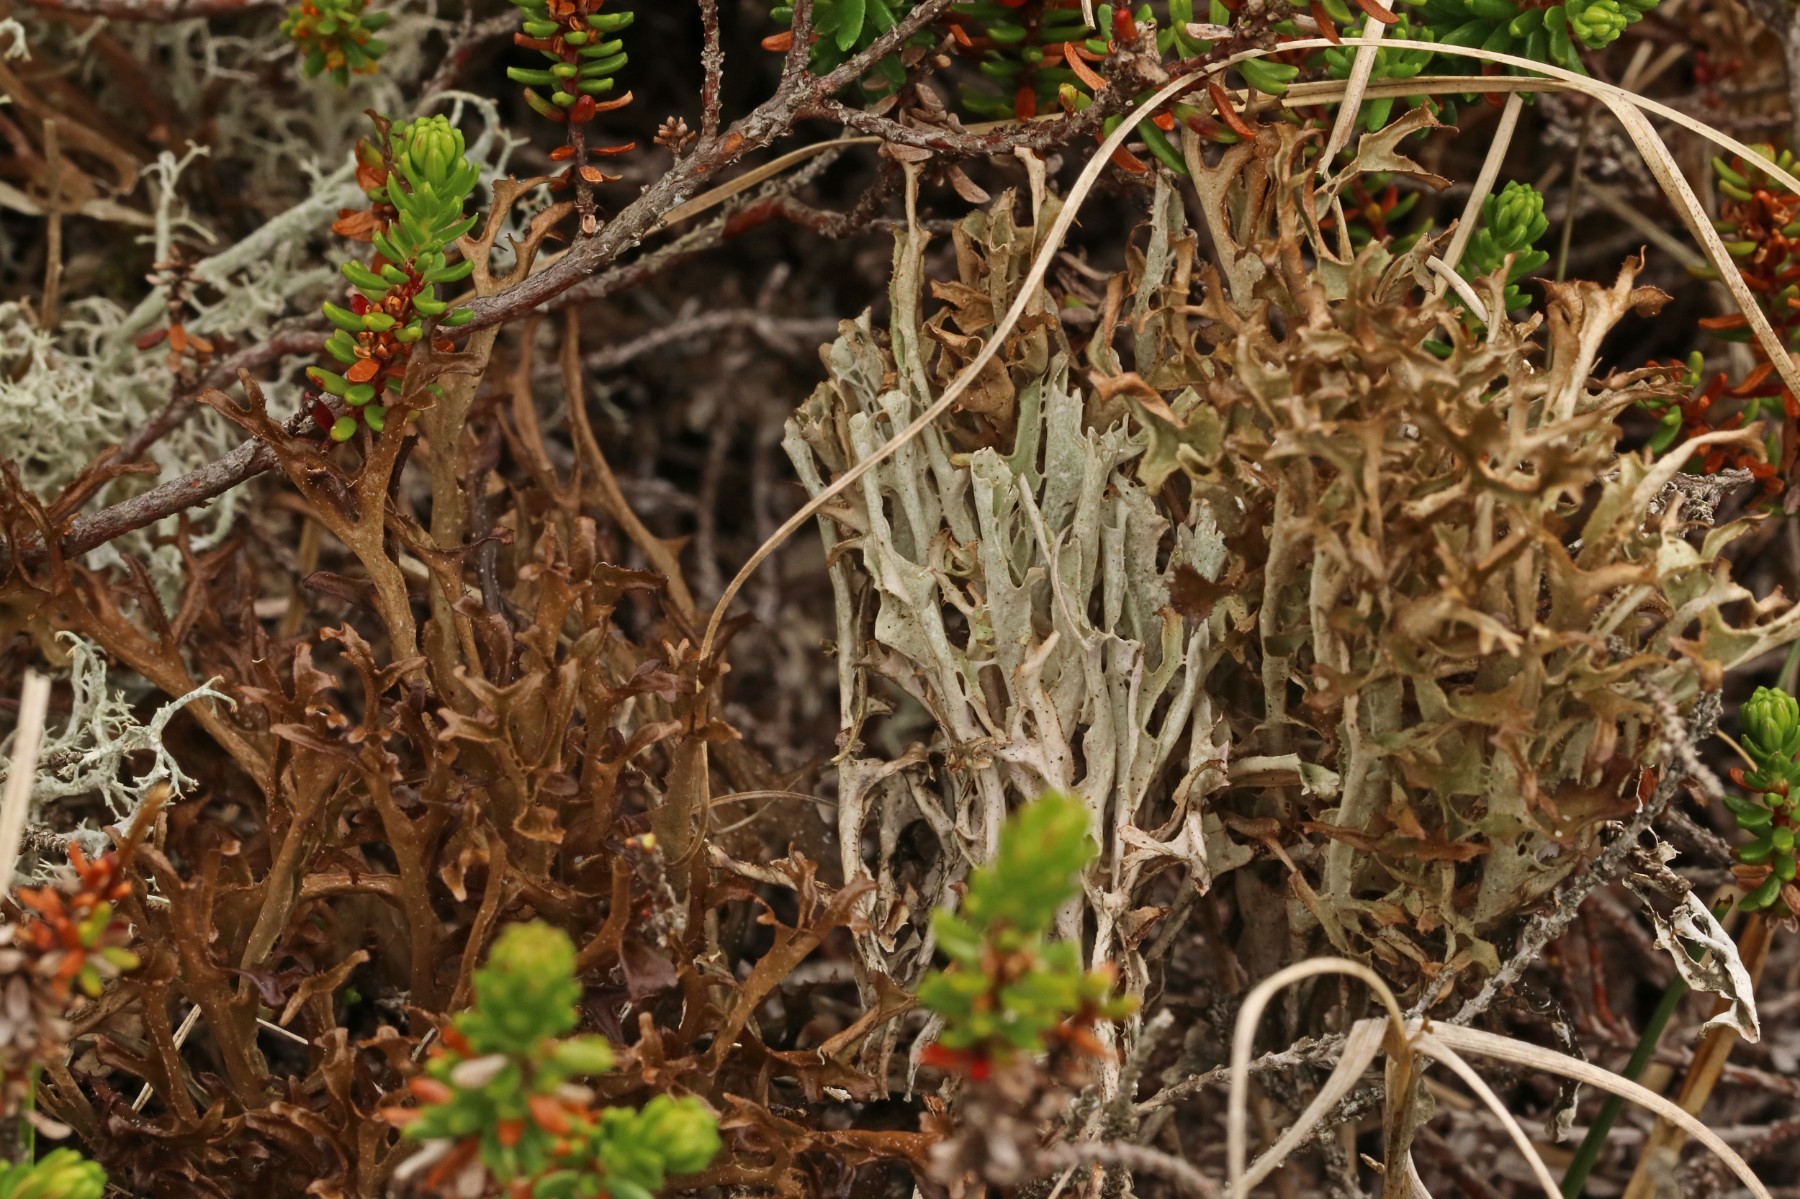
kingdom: Fungi
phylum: Ascomycota
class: Lecanoromycetes
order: Lecanorales
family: Parmeliaceae
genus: Cetraria
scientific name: Cetraria islandica
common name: islandsk kruslav
